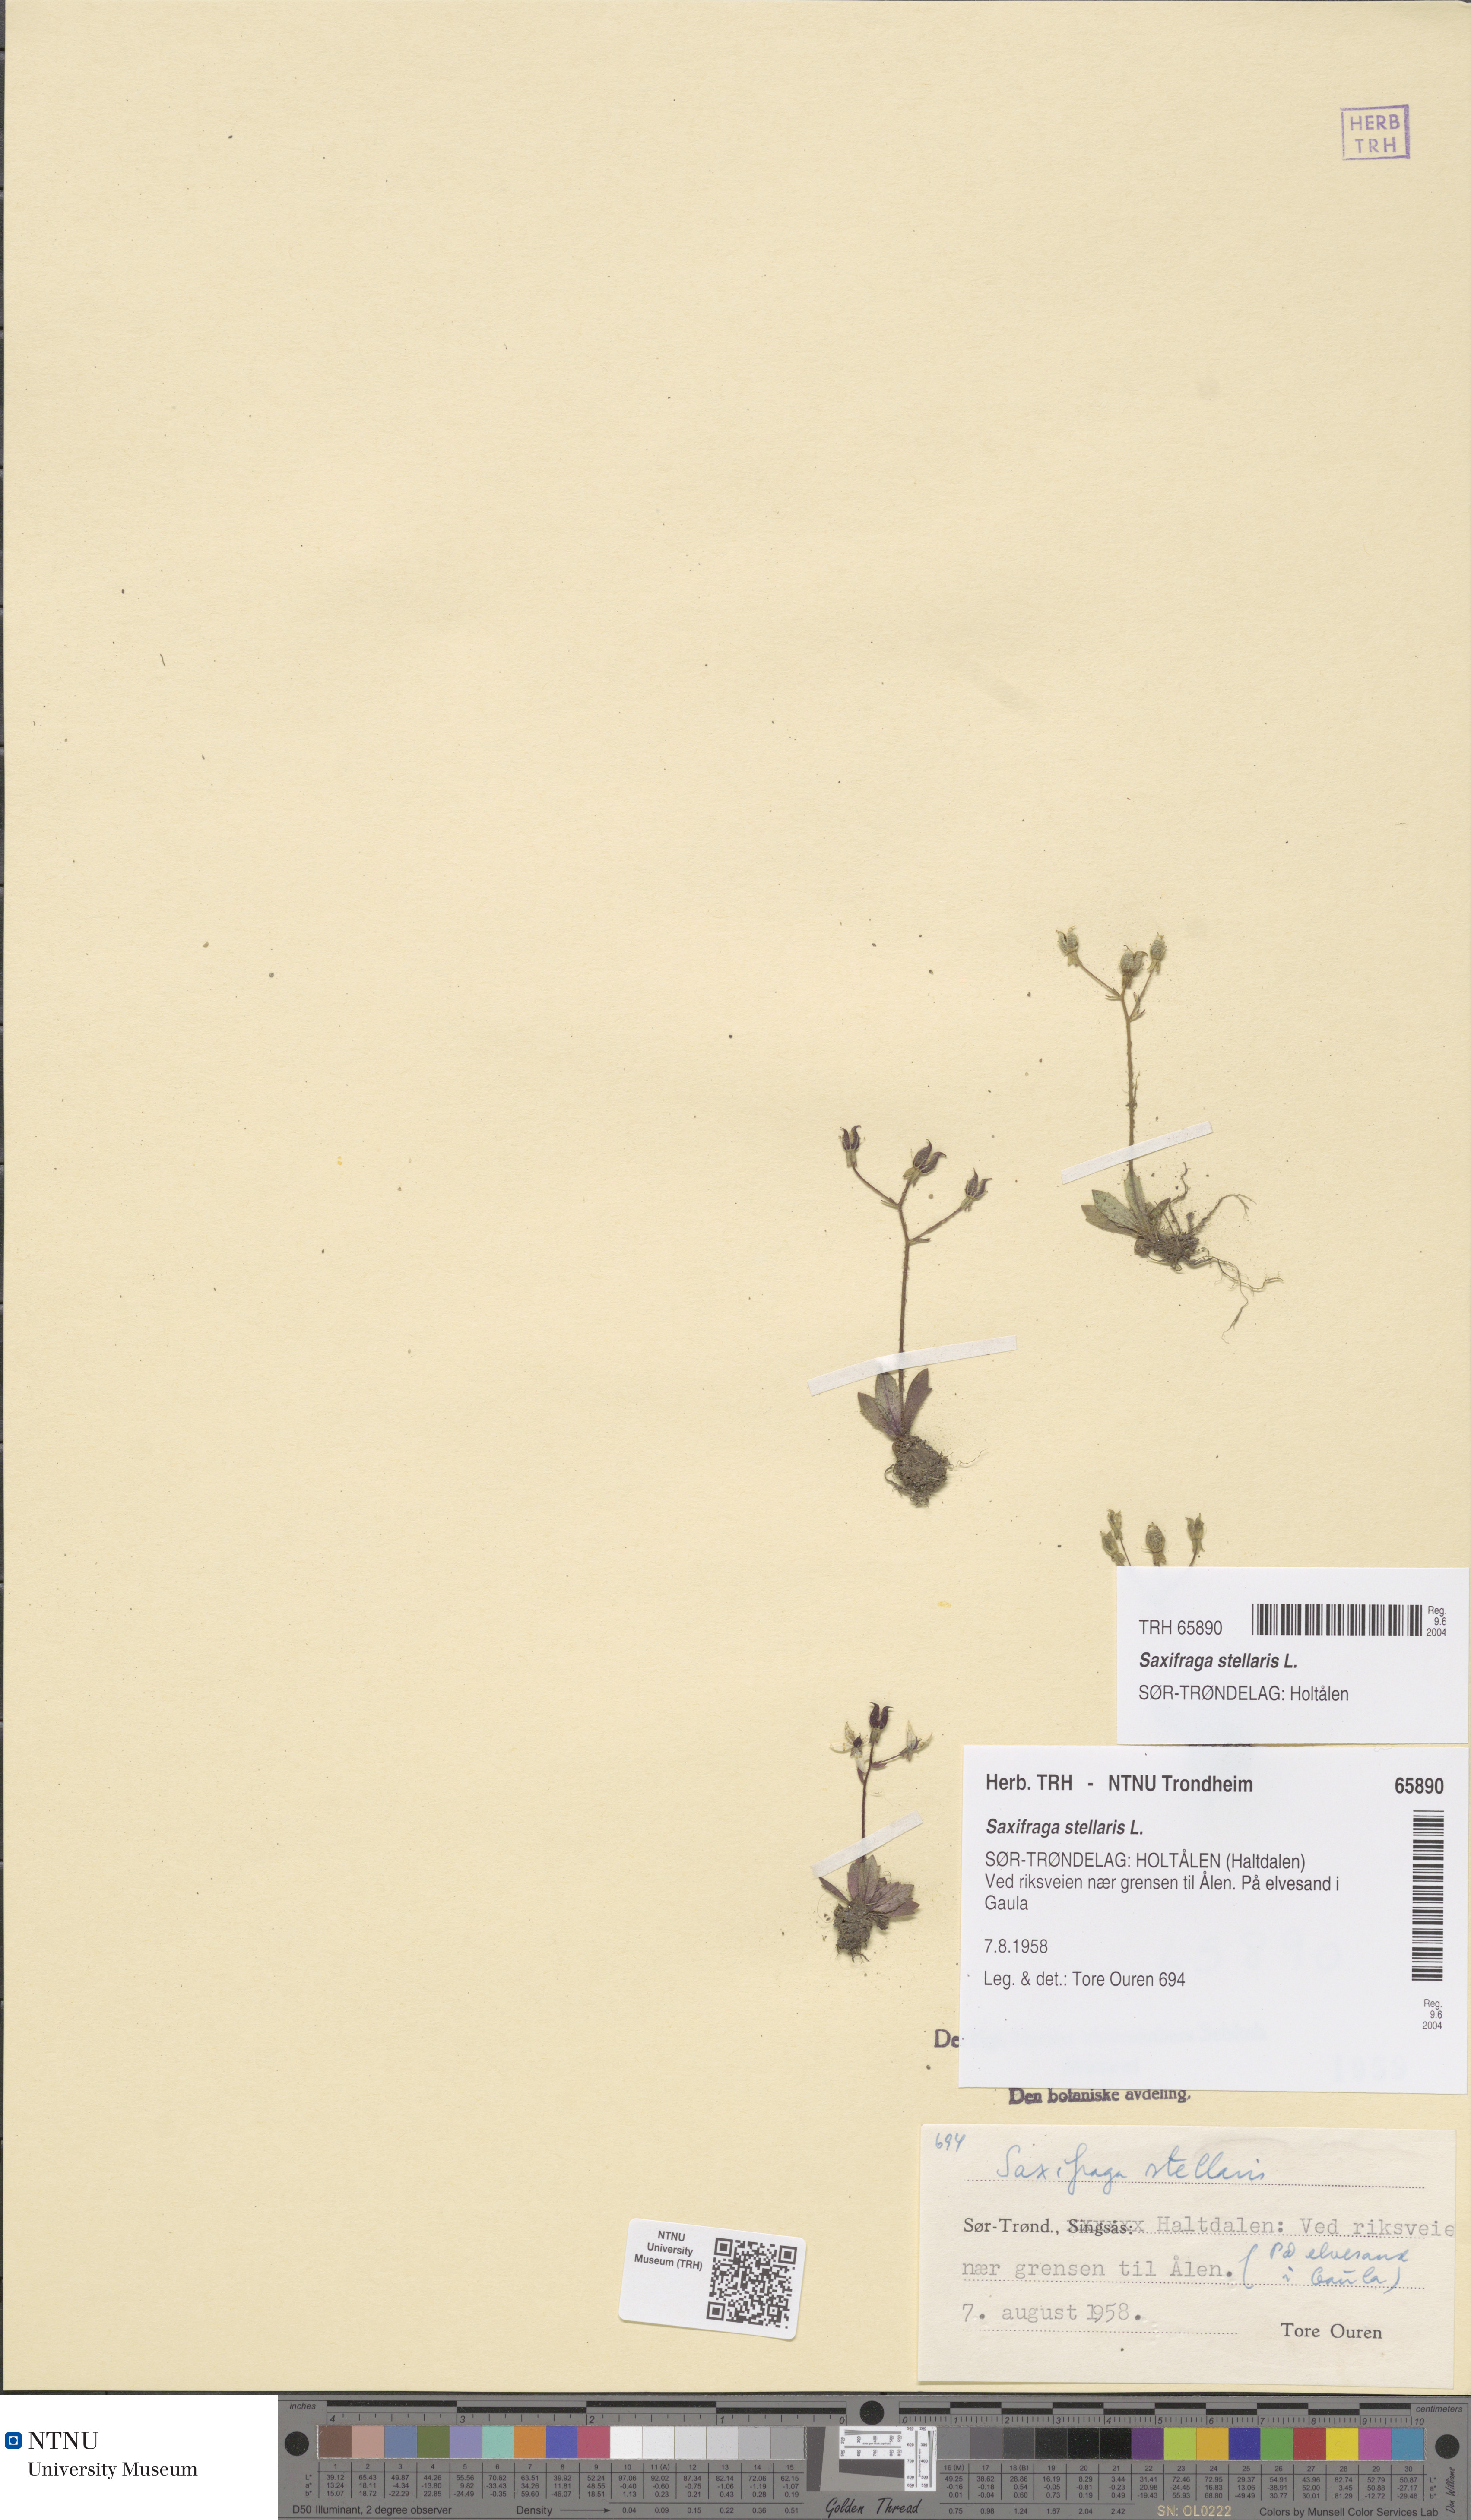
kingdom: Plantae
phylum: Tracheophyta
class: Magnoliopsida
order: Saxifragales
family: Saxifragaceae
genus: Micranthes
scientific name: Micranthes stellaris
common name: Starry saxifrage
